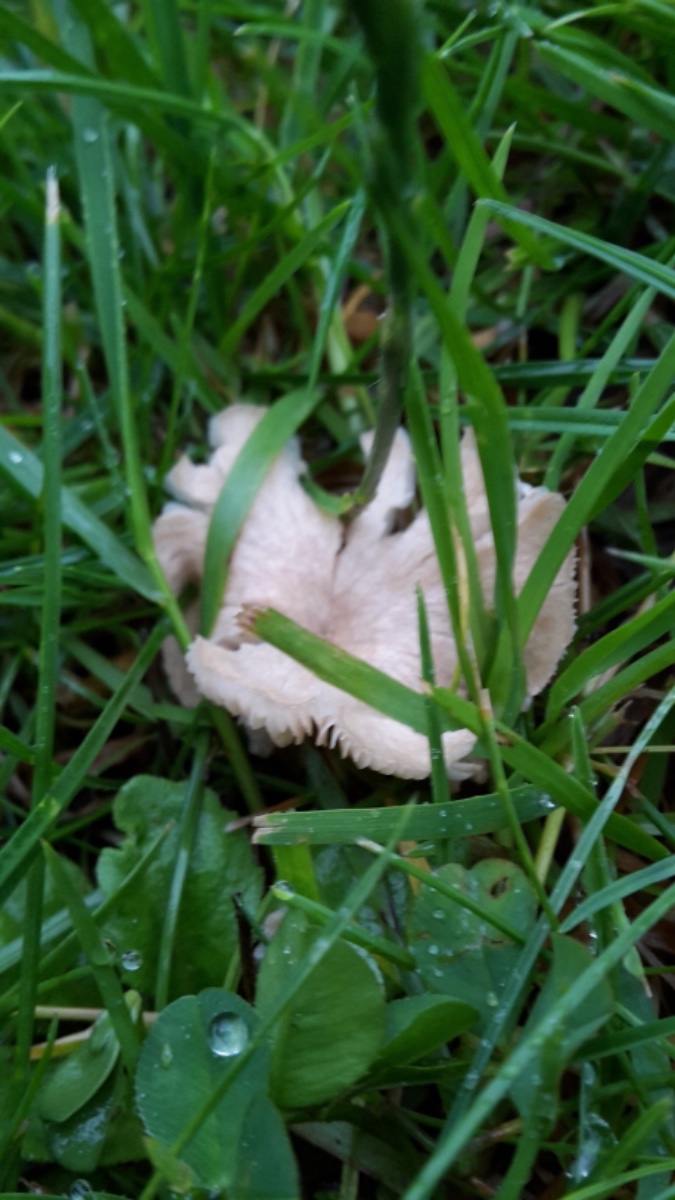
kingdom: Fungi
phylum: Basidiomycota
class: Agaricomycetes
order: Agaricales
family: Entolomataceae
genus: Entoloma
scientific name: Entoloma neglectum
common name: bleg rødblad
